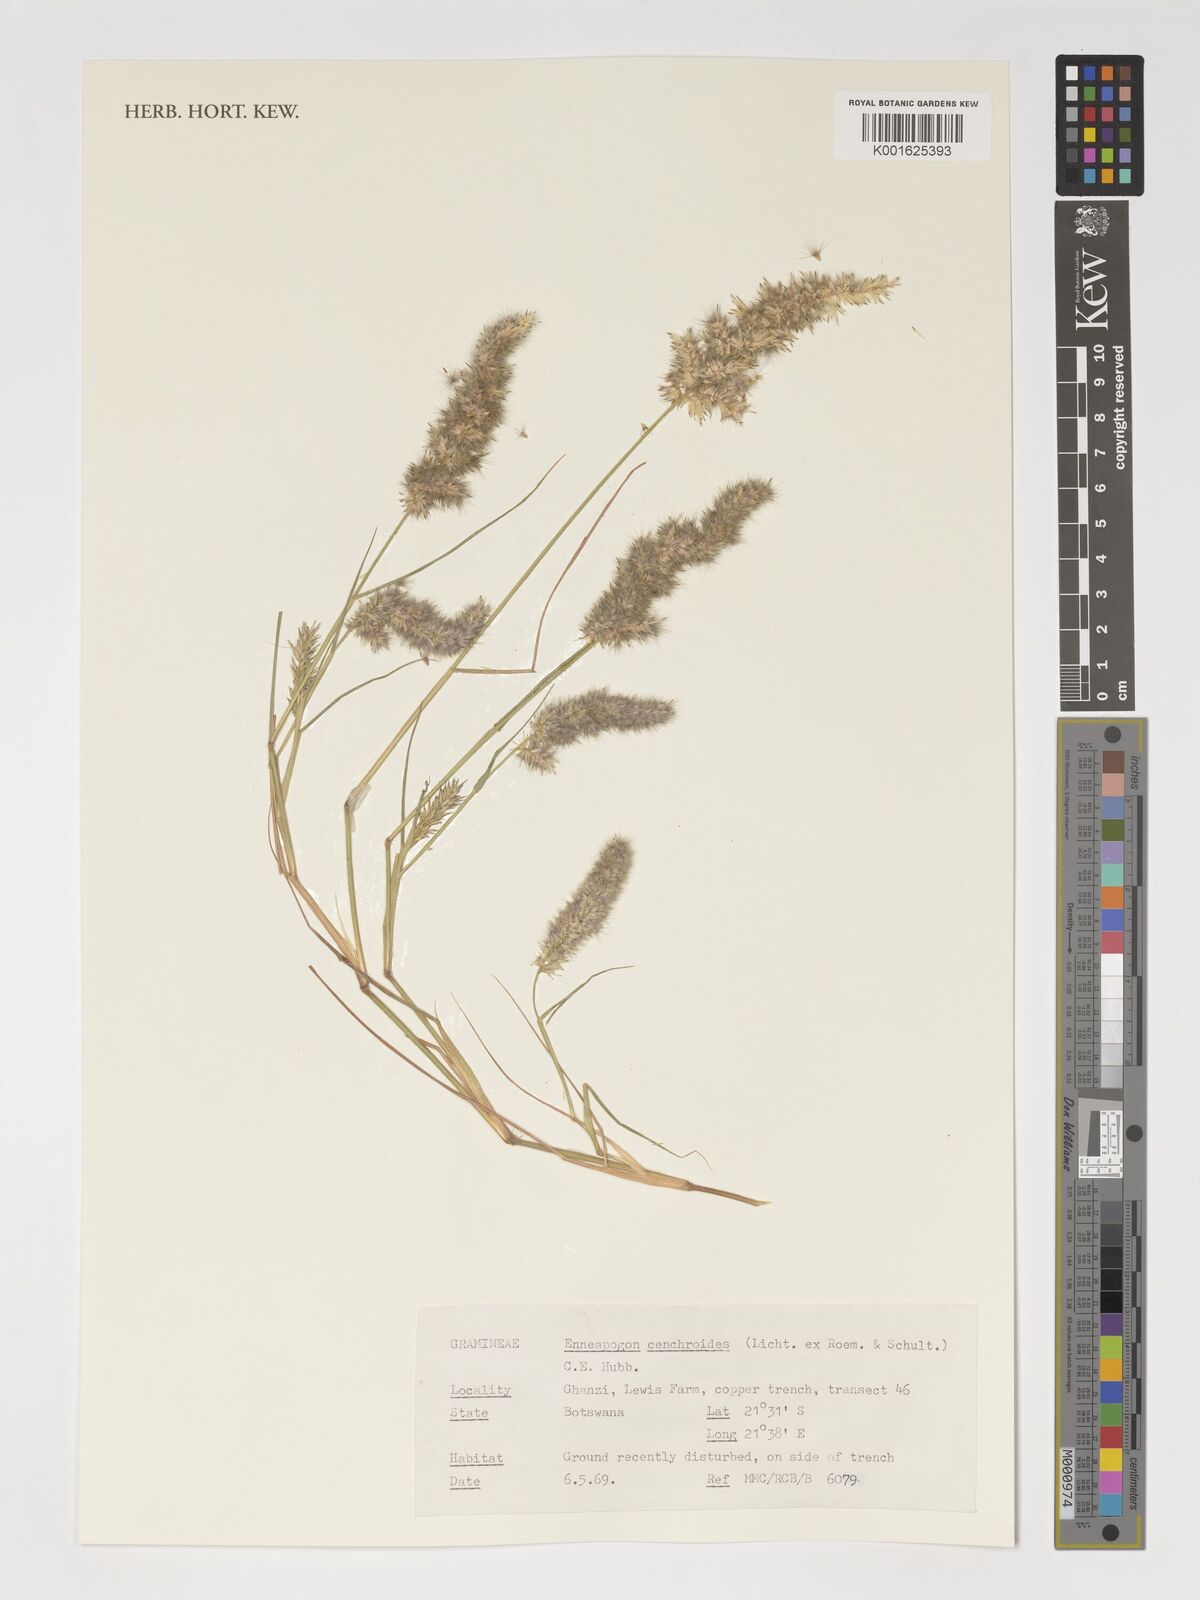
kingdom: Plantae
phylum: Tracheophyta
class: Liliopsida
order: Poales
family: Poaceae
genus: Enneapogon
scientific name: Enneapogon cenchroides
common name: Soft feather pappusgrass
